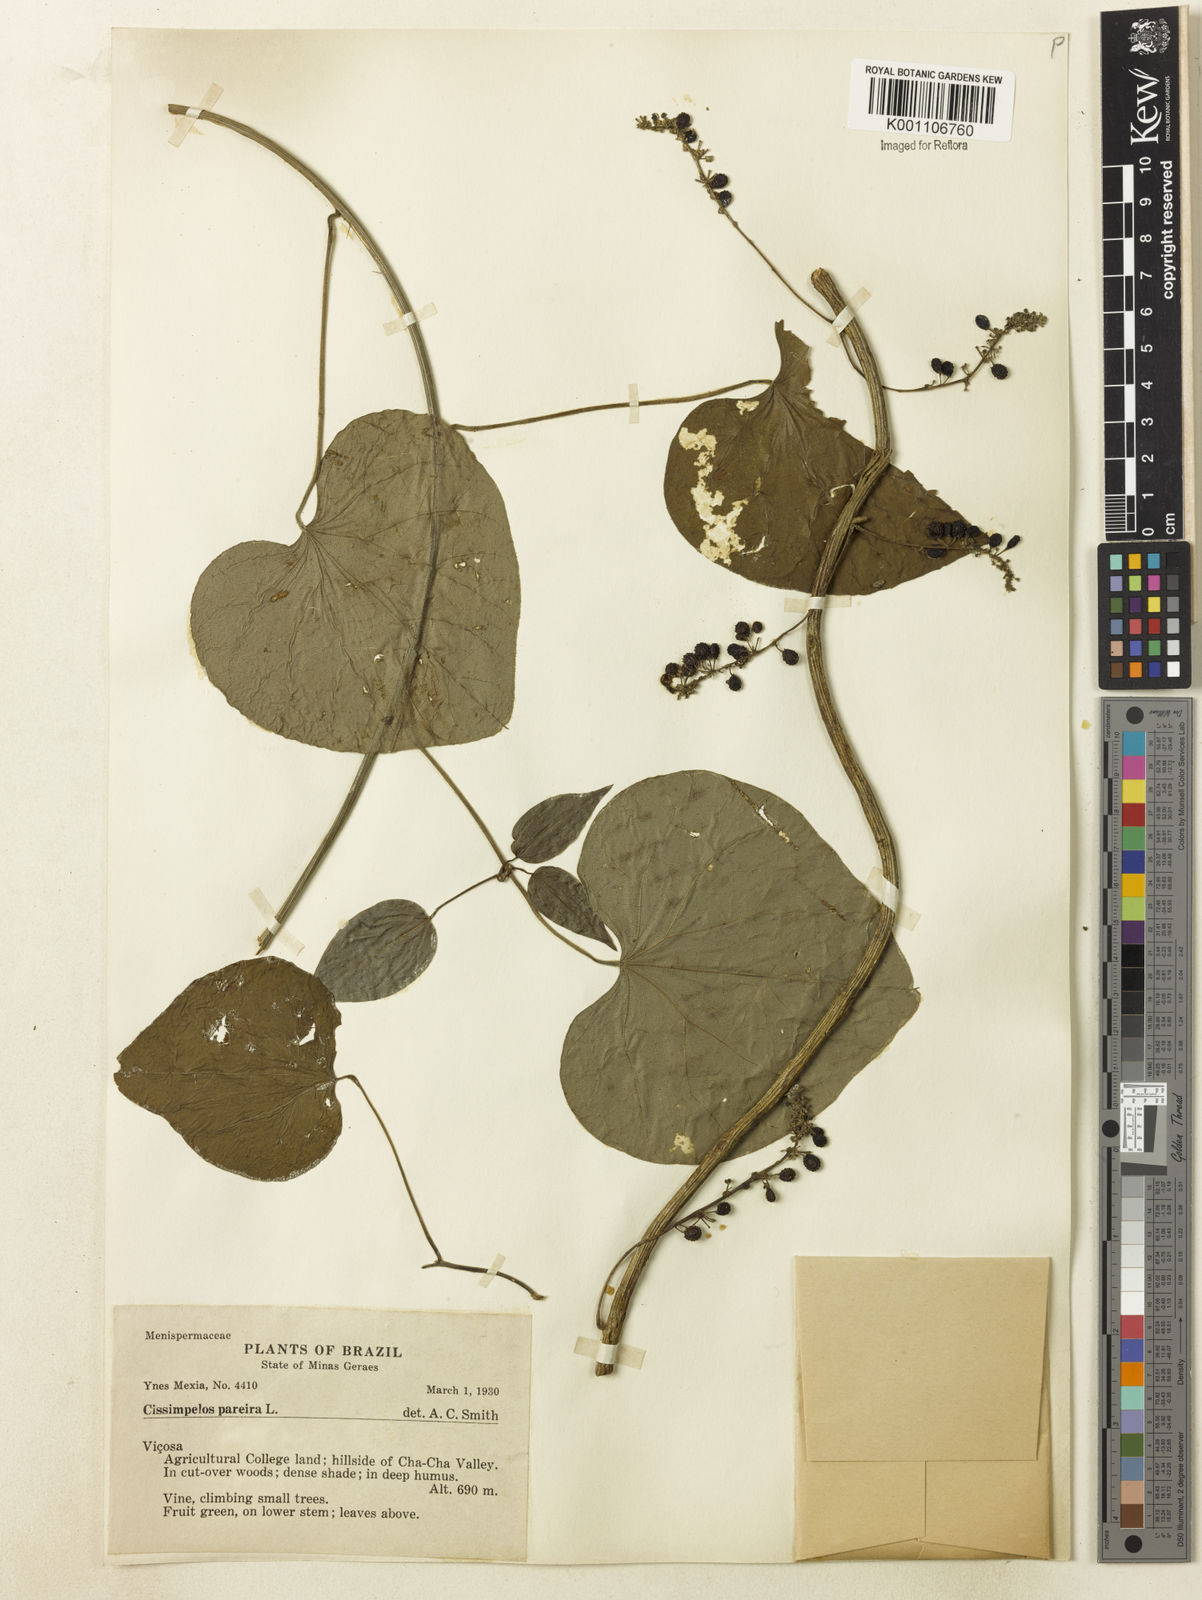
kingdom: Plantae
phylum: Tracheophyta
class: Magnoliopsida
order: Ranunculales
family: Menispermaceae
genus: Cissampelos
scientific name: Cissampelos pareira
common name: Velvetleaf
